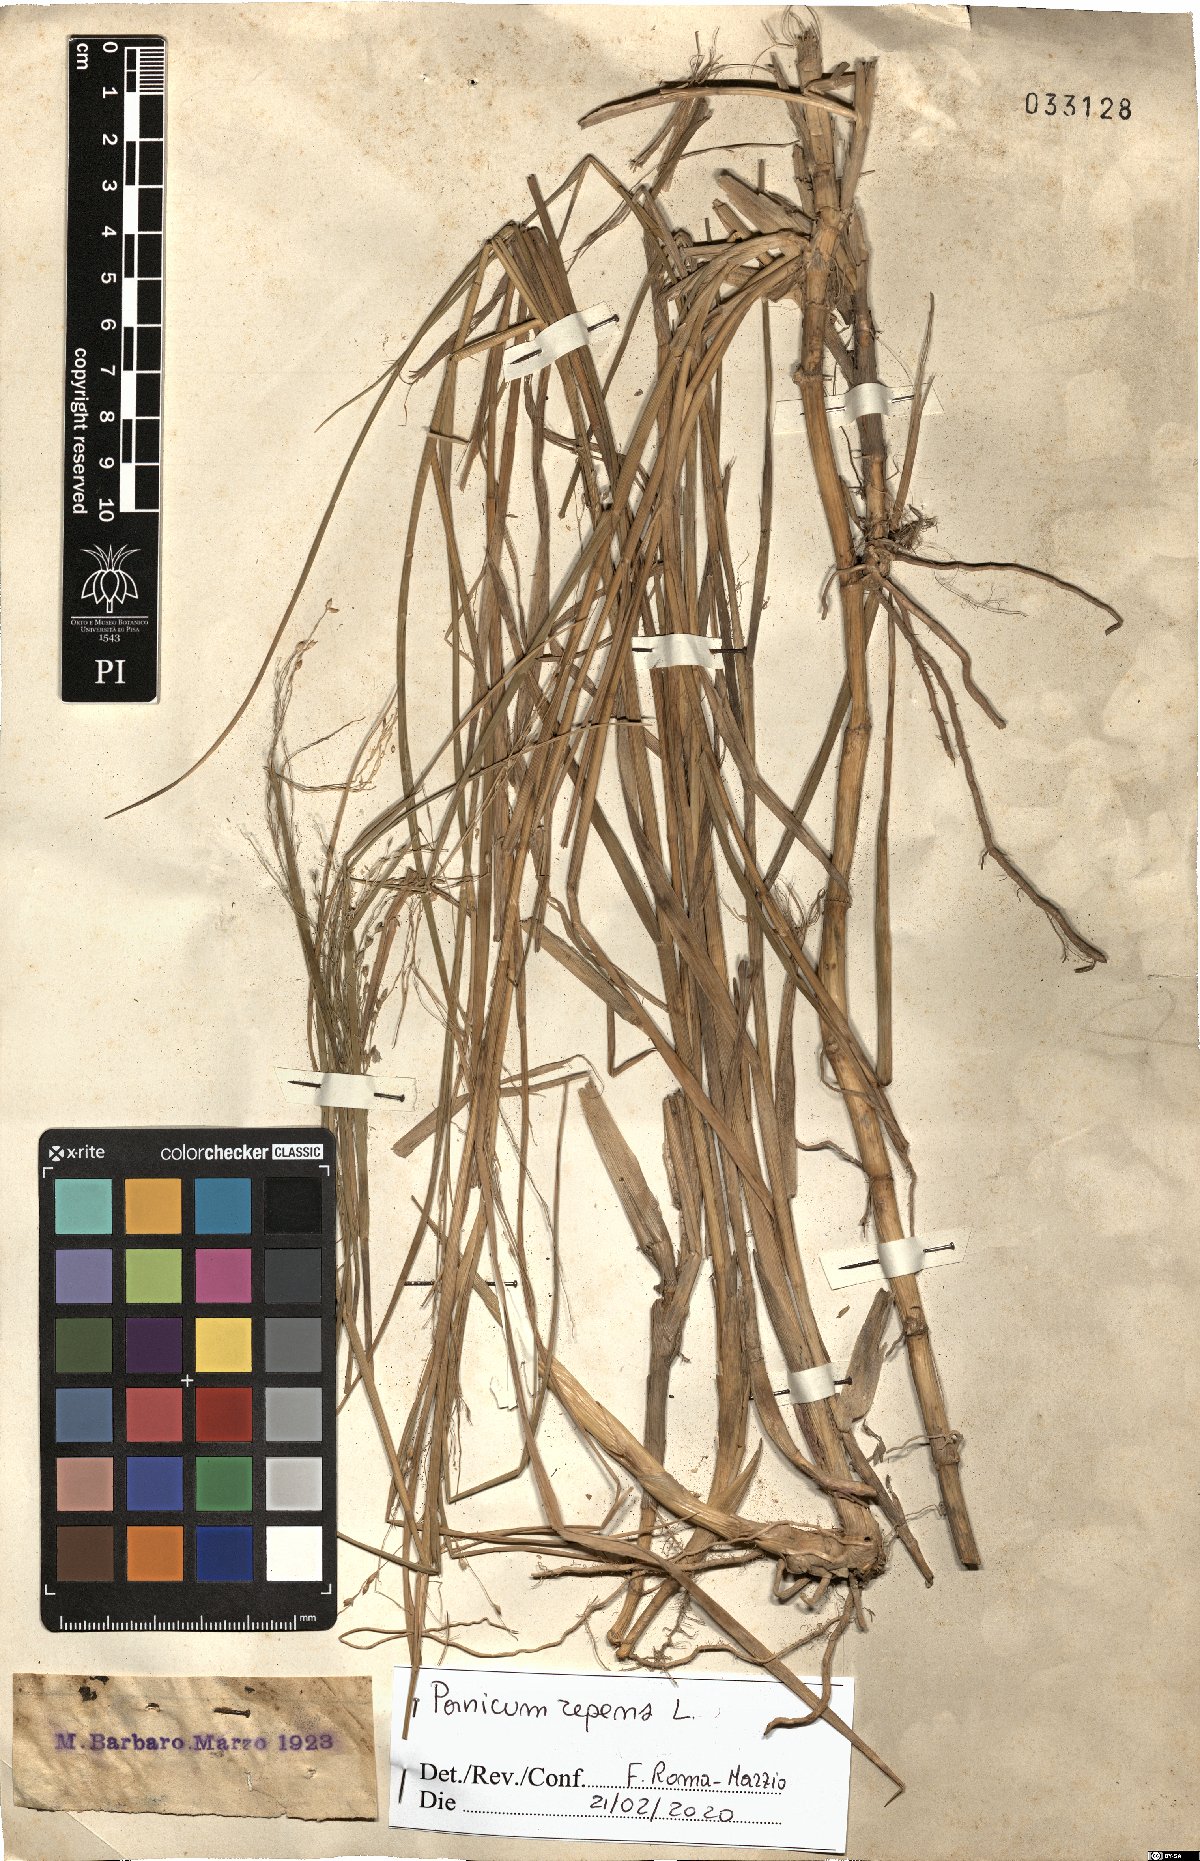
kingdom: Plantae
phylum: Tracheophyta
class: Liliopsida
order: Poales
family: Poaceae
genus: Panicum
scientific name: Panicum repens
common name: Torpedo grass
